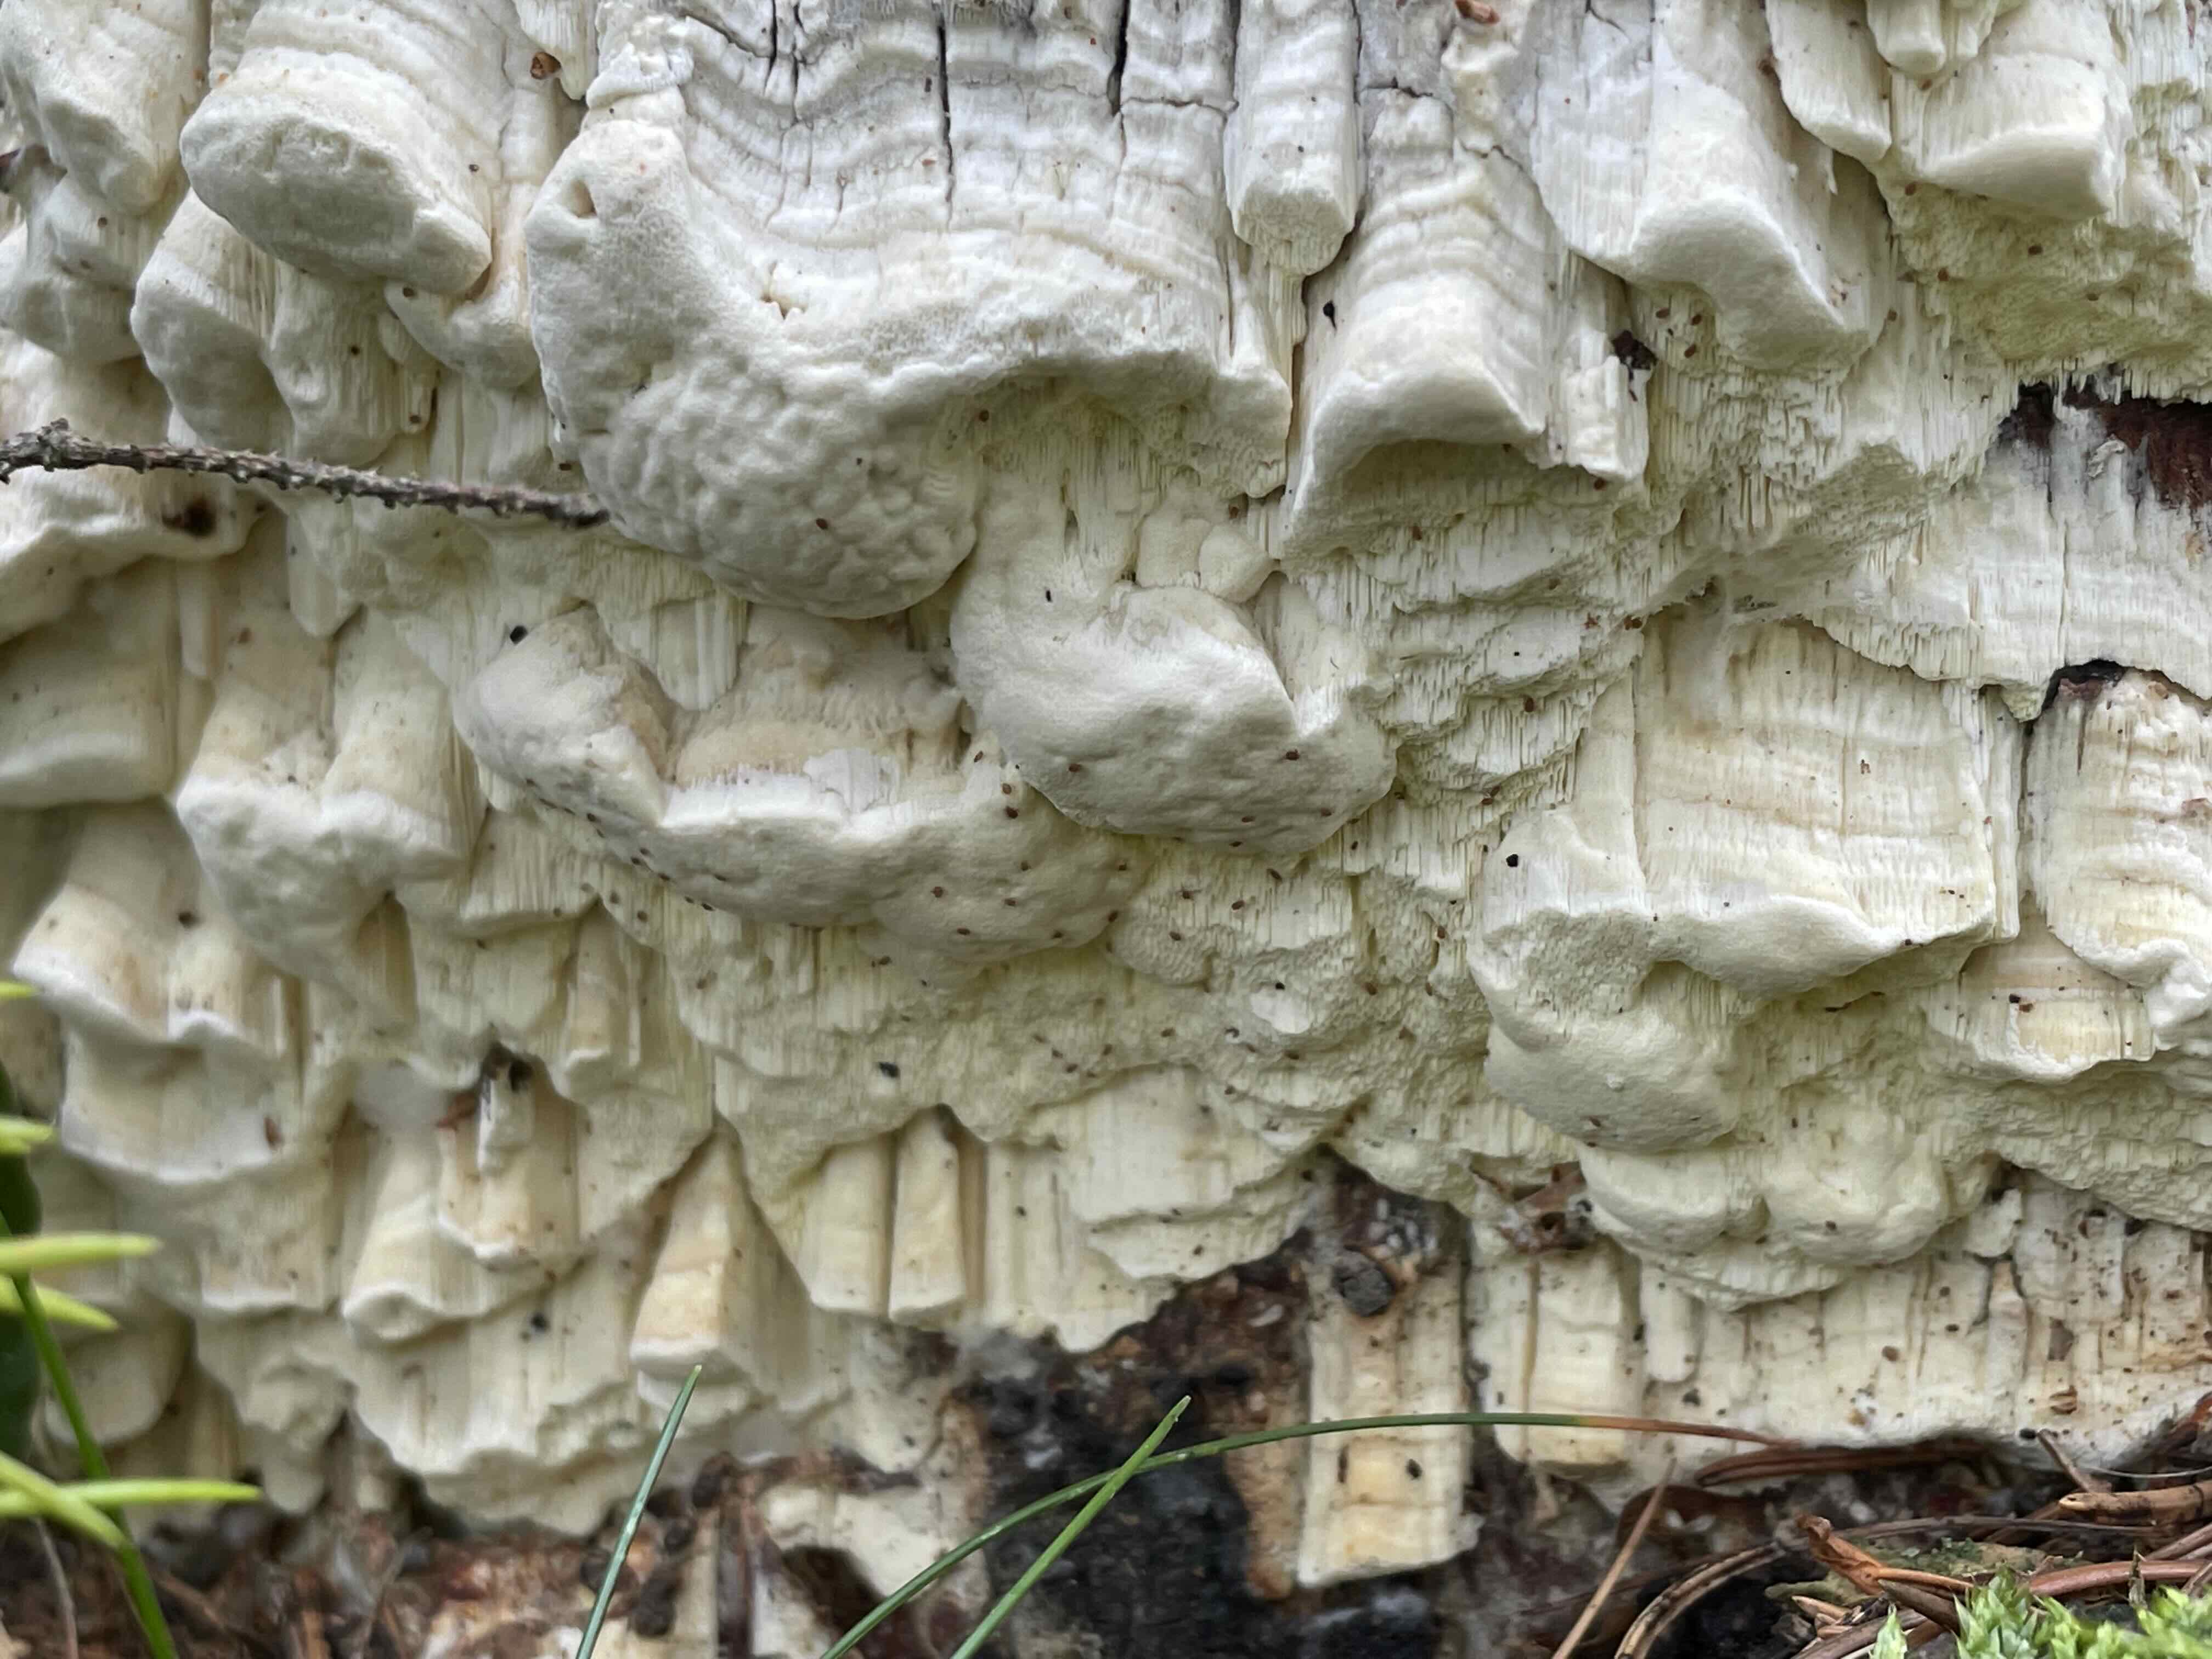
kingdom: Fungi
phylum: Basidiomycota
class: Agaricomycetes
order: Polyporales
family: Fomitopsidaceae
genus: Daedalea
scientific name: Daedalea xantha
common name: gul sejporesvamp
